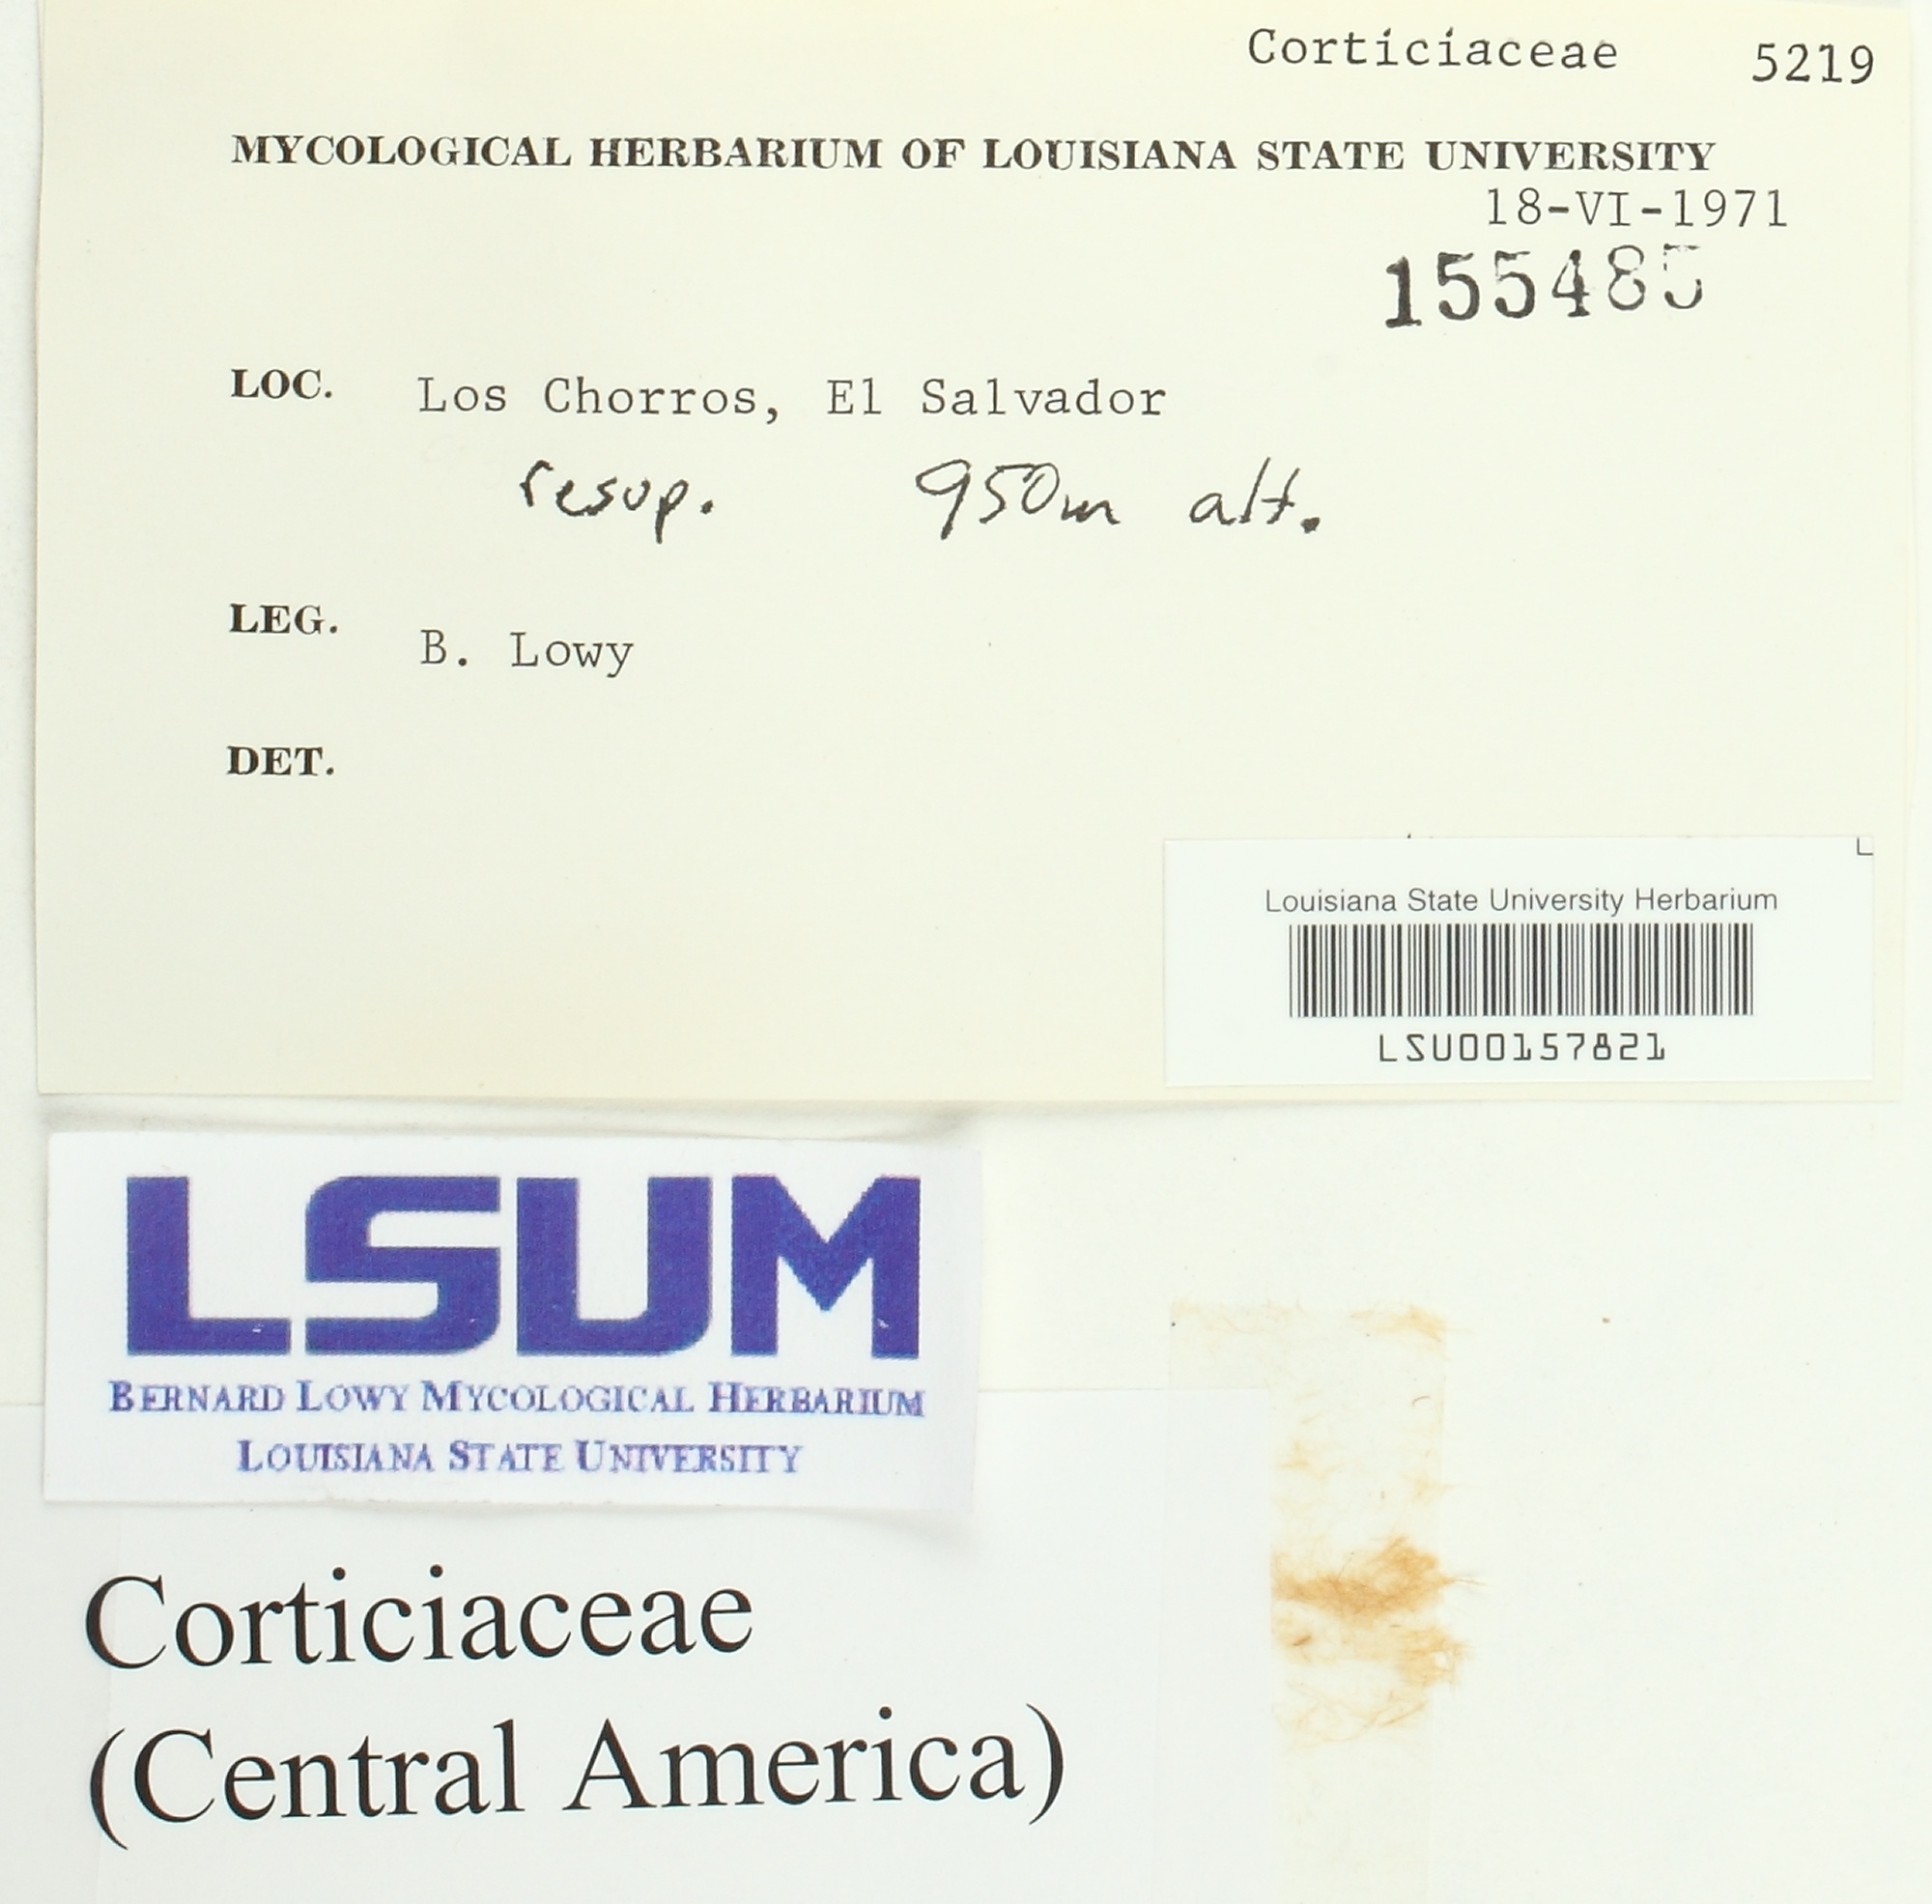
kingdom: Fungi
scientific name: Fungi
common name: Fungi
